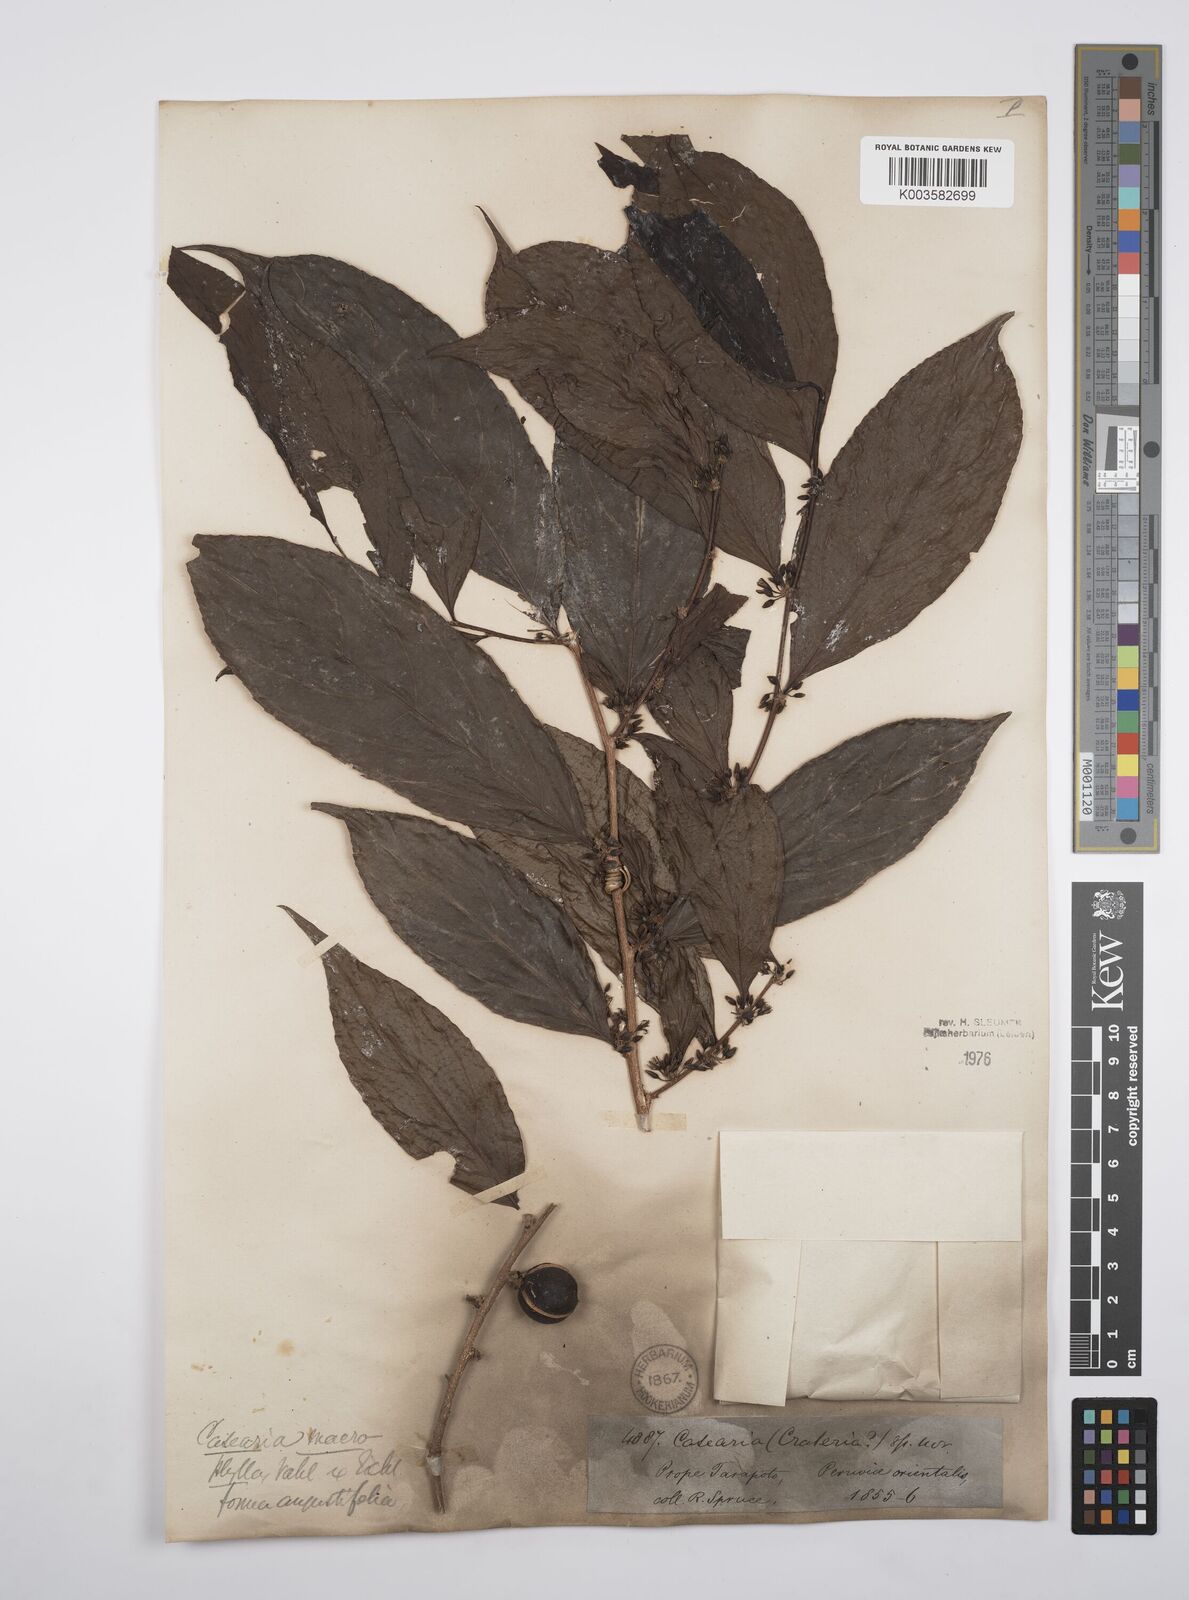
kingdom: Plantae
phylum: Tracheophyta
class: Magnoliopsida
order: Malpighiales
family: Salicaceae
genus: Casearia
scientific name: Casearia pitumba
